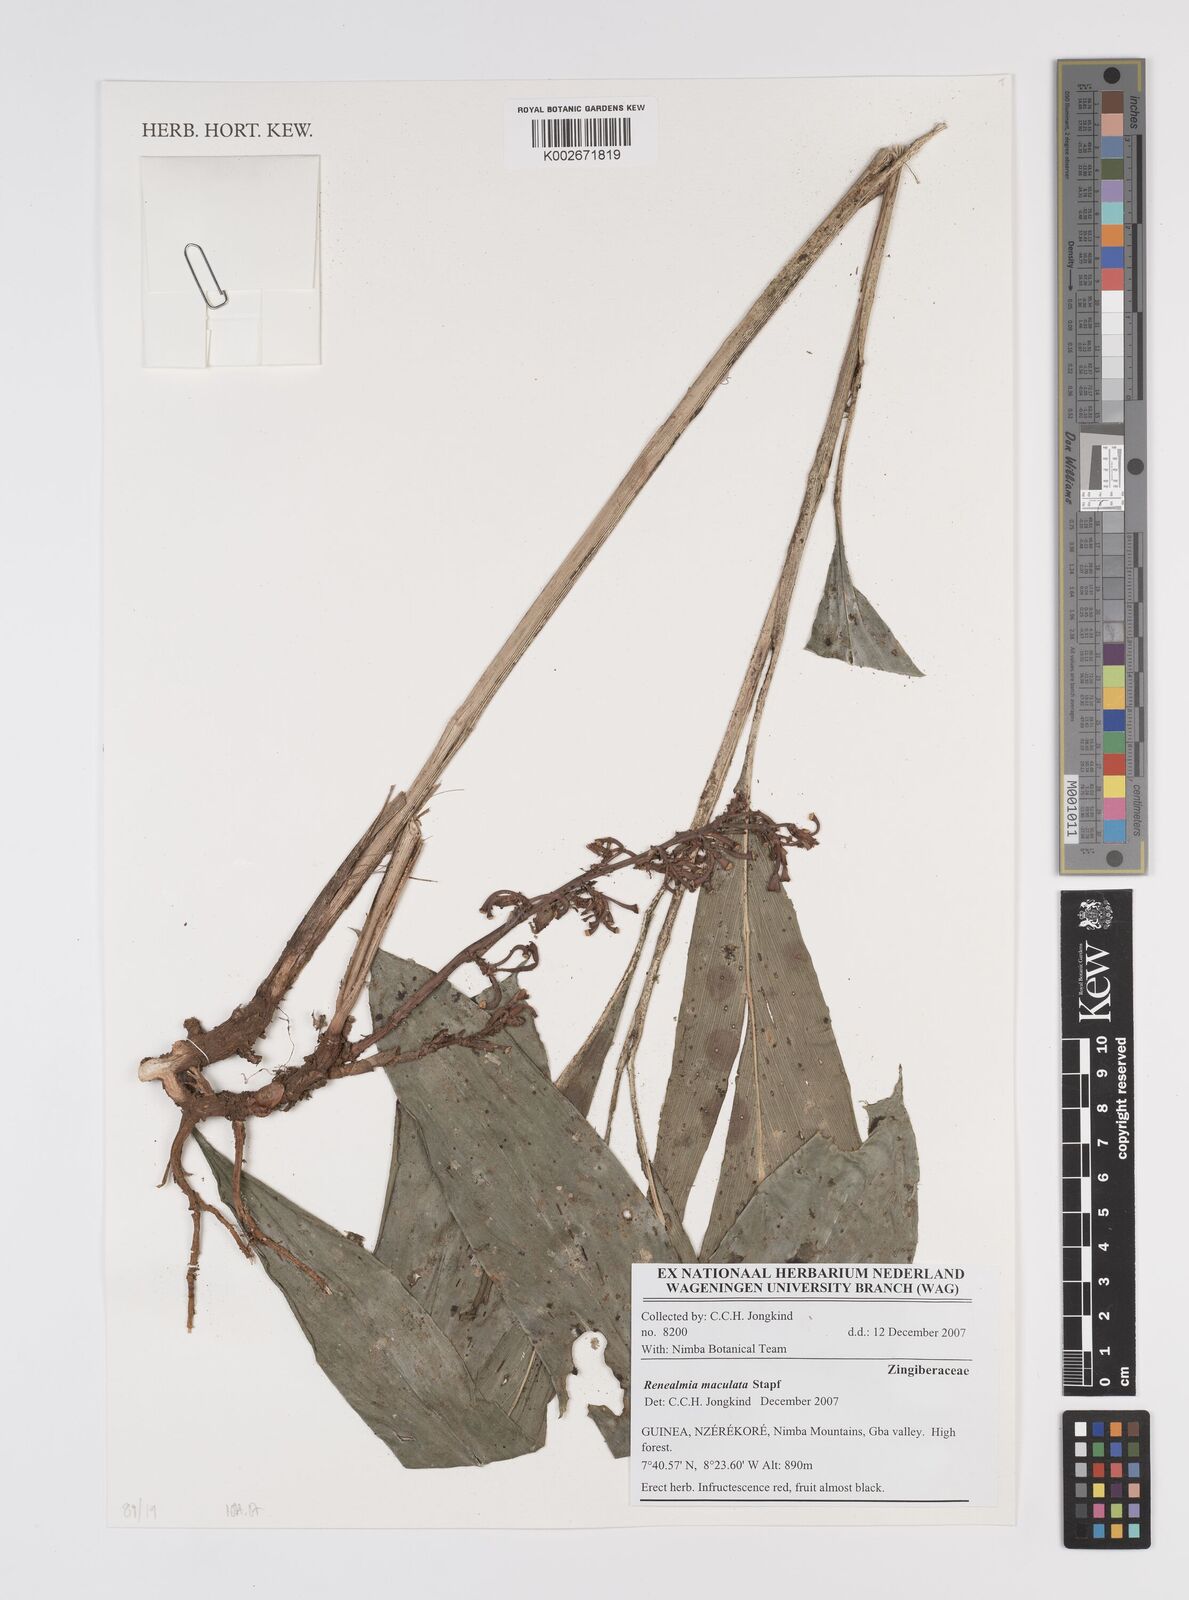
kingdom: Plantae
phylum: Tracheophyta
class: Liliopsida
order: Zingiberales
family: Zingiberaceae
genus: Renealmia
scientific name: Renealmia maculata
